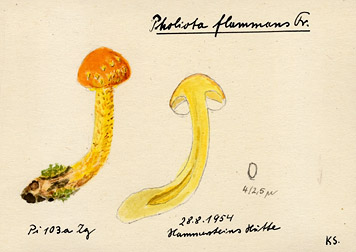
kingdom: Fungi
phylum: Basidiomycota
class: Agaricomycetes
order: Agaricales
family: Strophariaceae
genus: Pholiota
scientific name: Pholiota flammans
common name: Flaming scalycap
